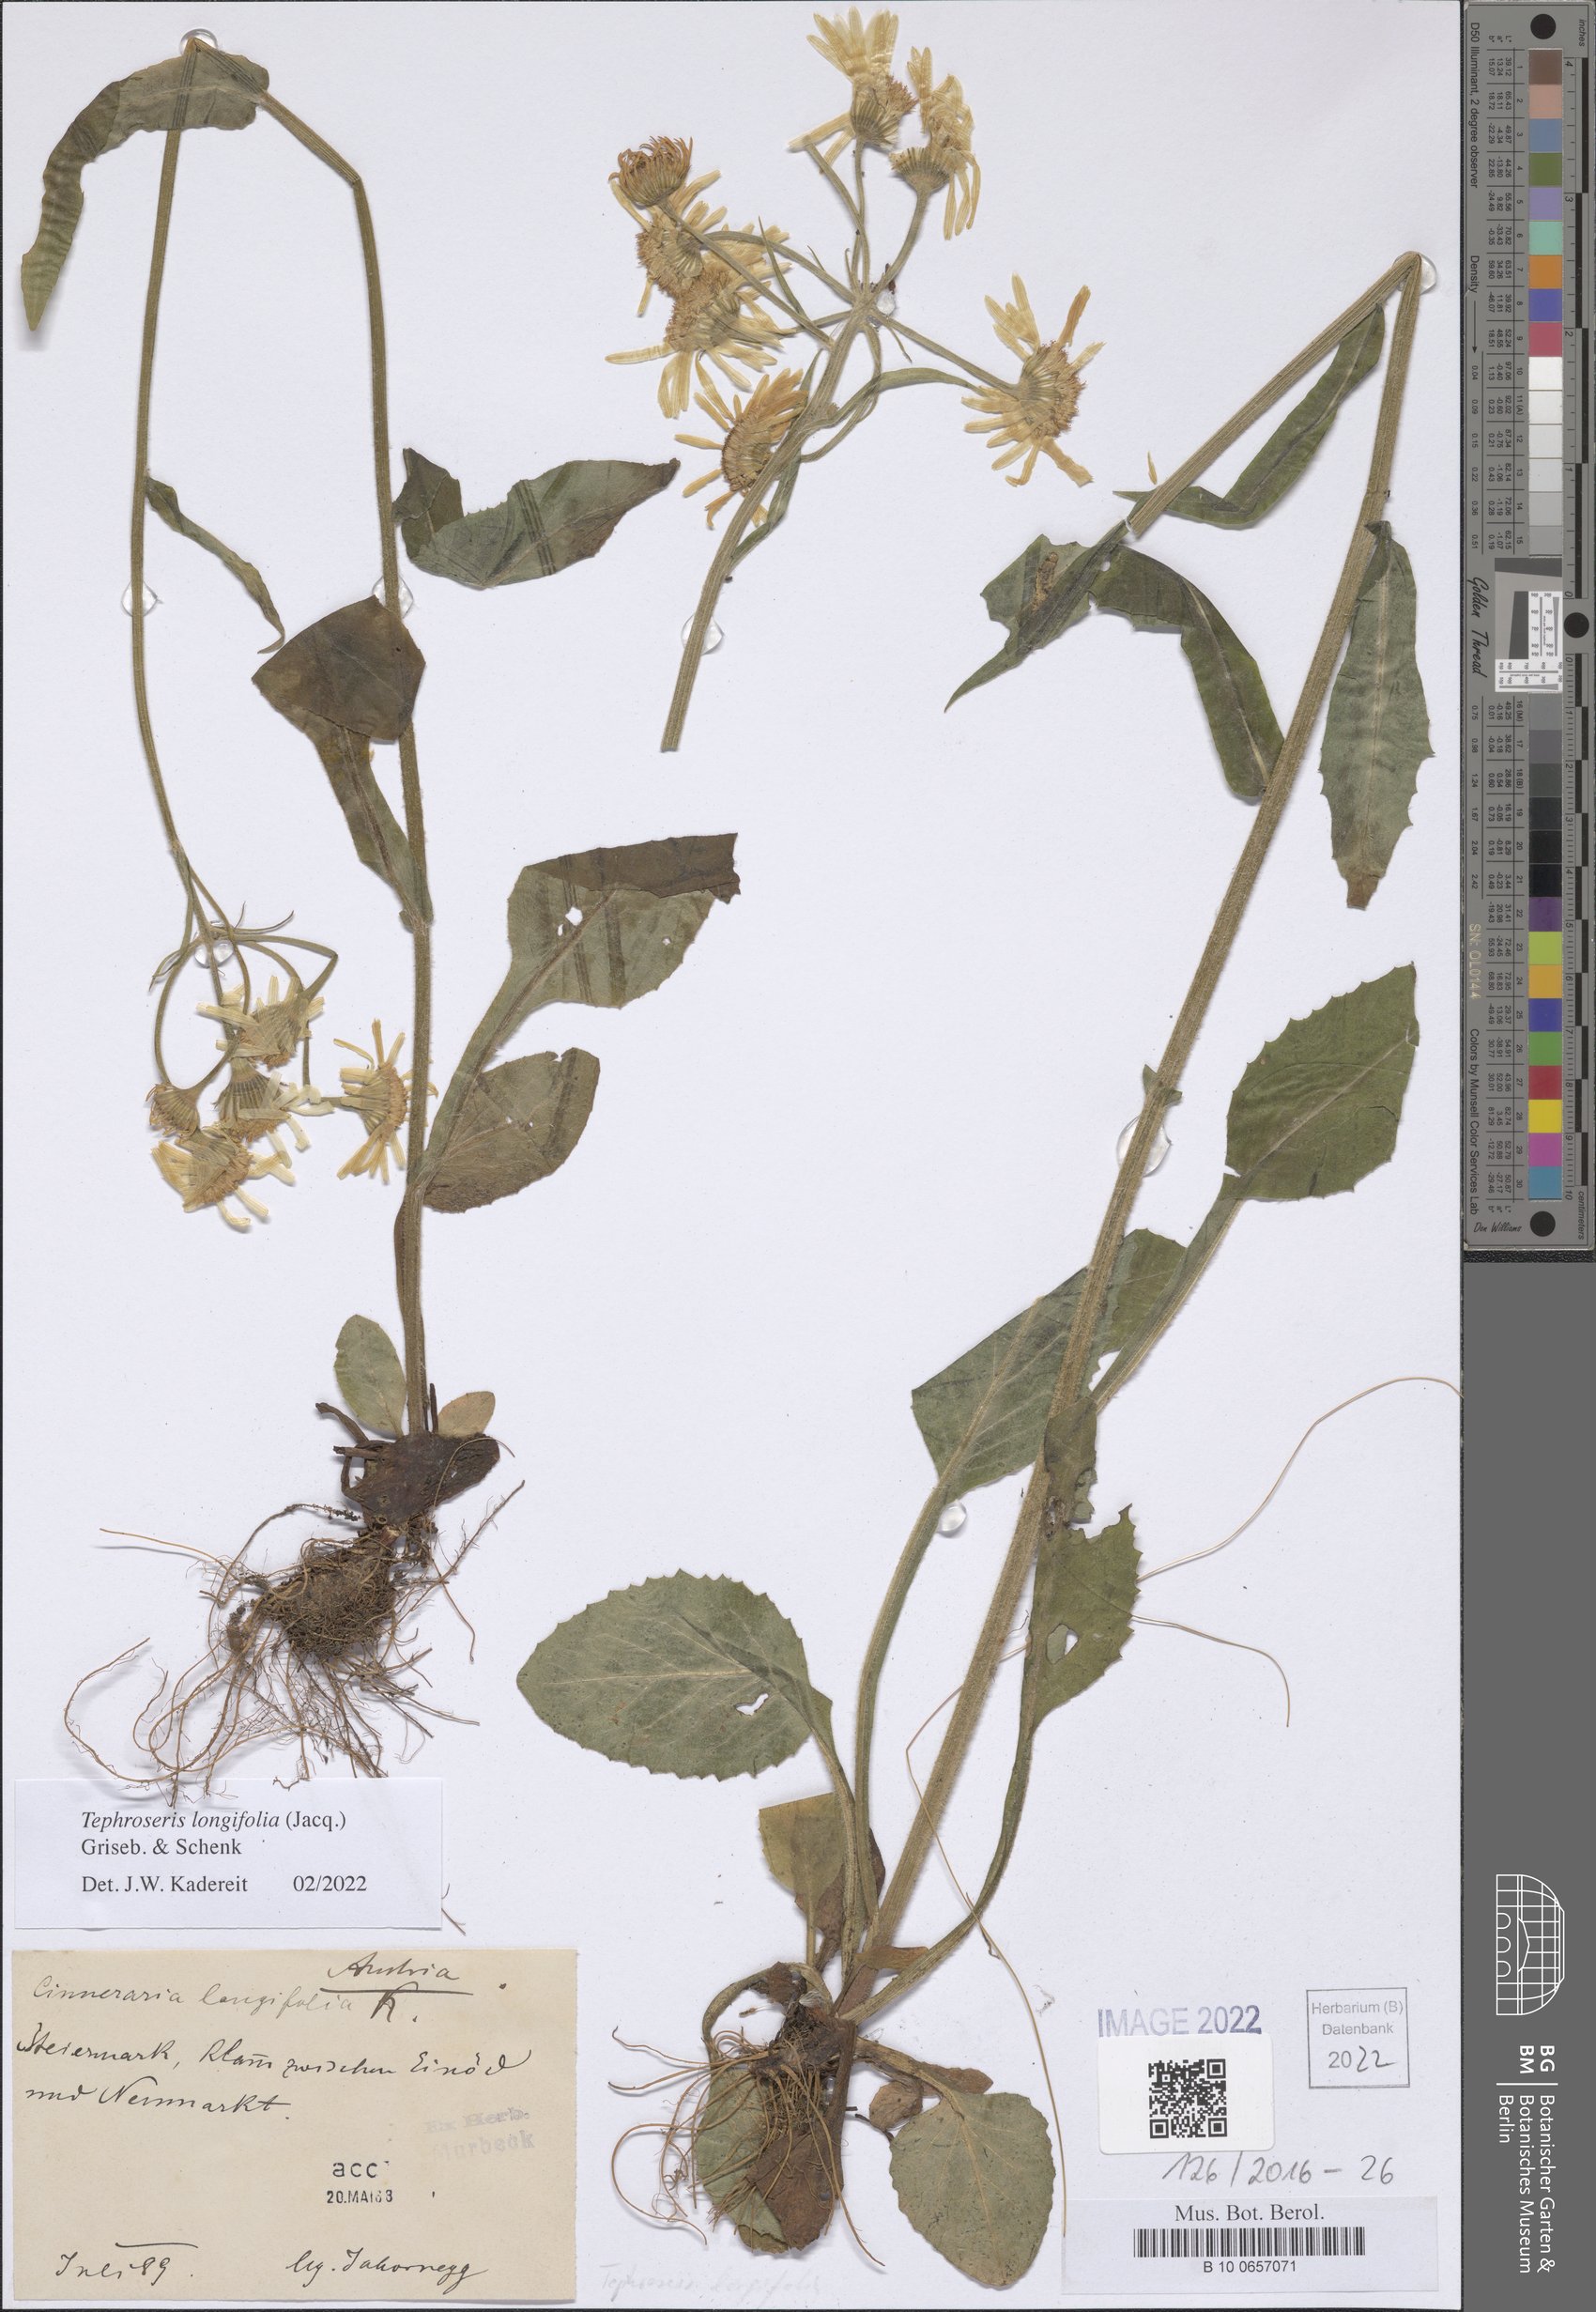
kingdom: Plantae
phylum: Tracheophyta
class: Magnoliopsida
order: Asterales
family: Asteraceae
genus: Tephroseris
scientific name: Tephroseris longifolia
